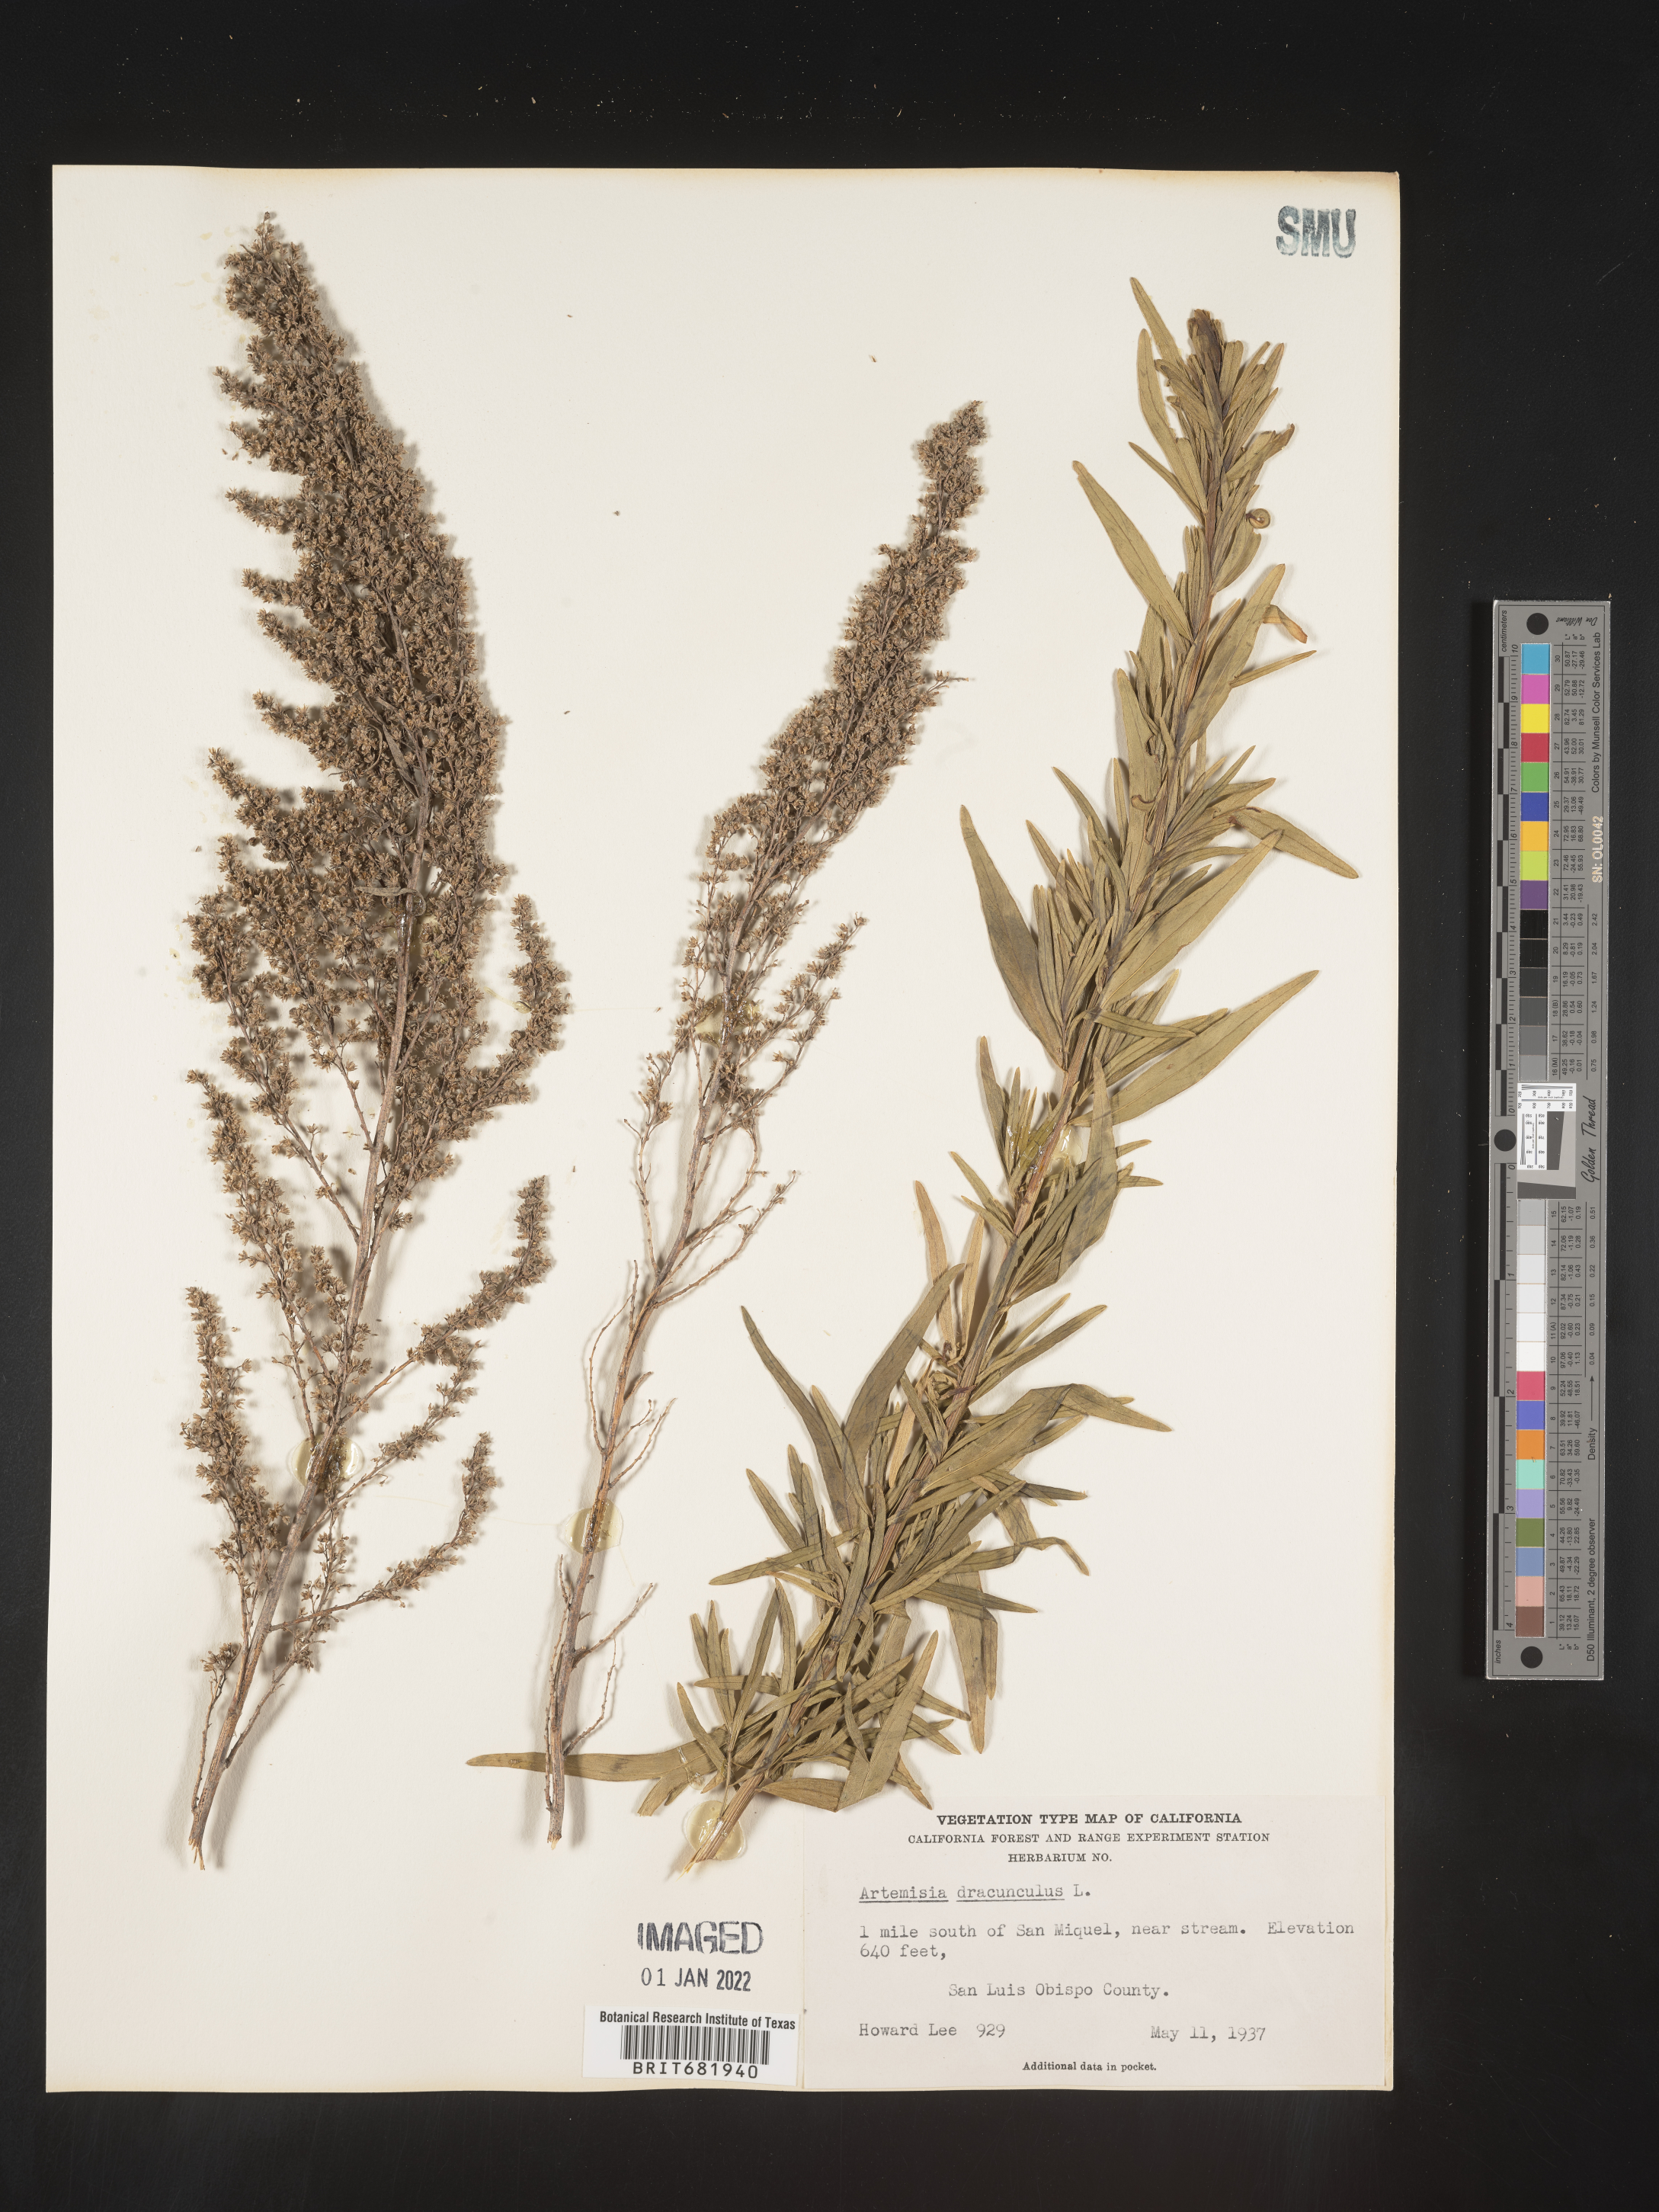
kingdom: Plantae
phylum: Tracheophyta
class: Magnoliopsida
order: Asterales
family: Asteraceae
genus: Artemisia
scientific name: Artemisia dracunculus
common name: Tarragon
